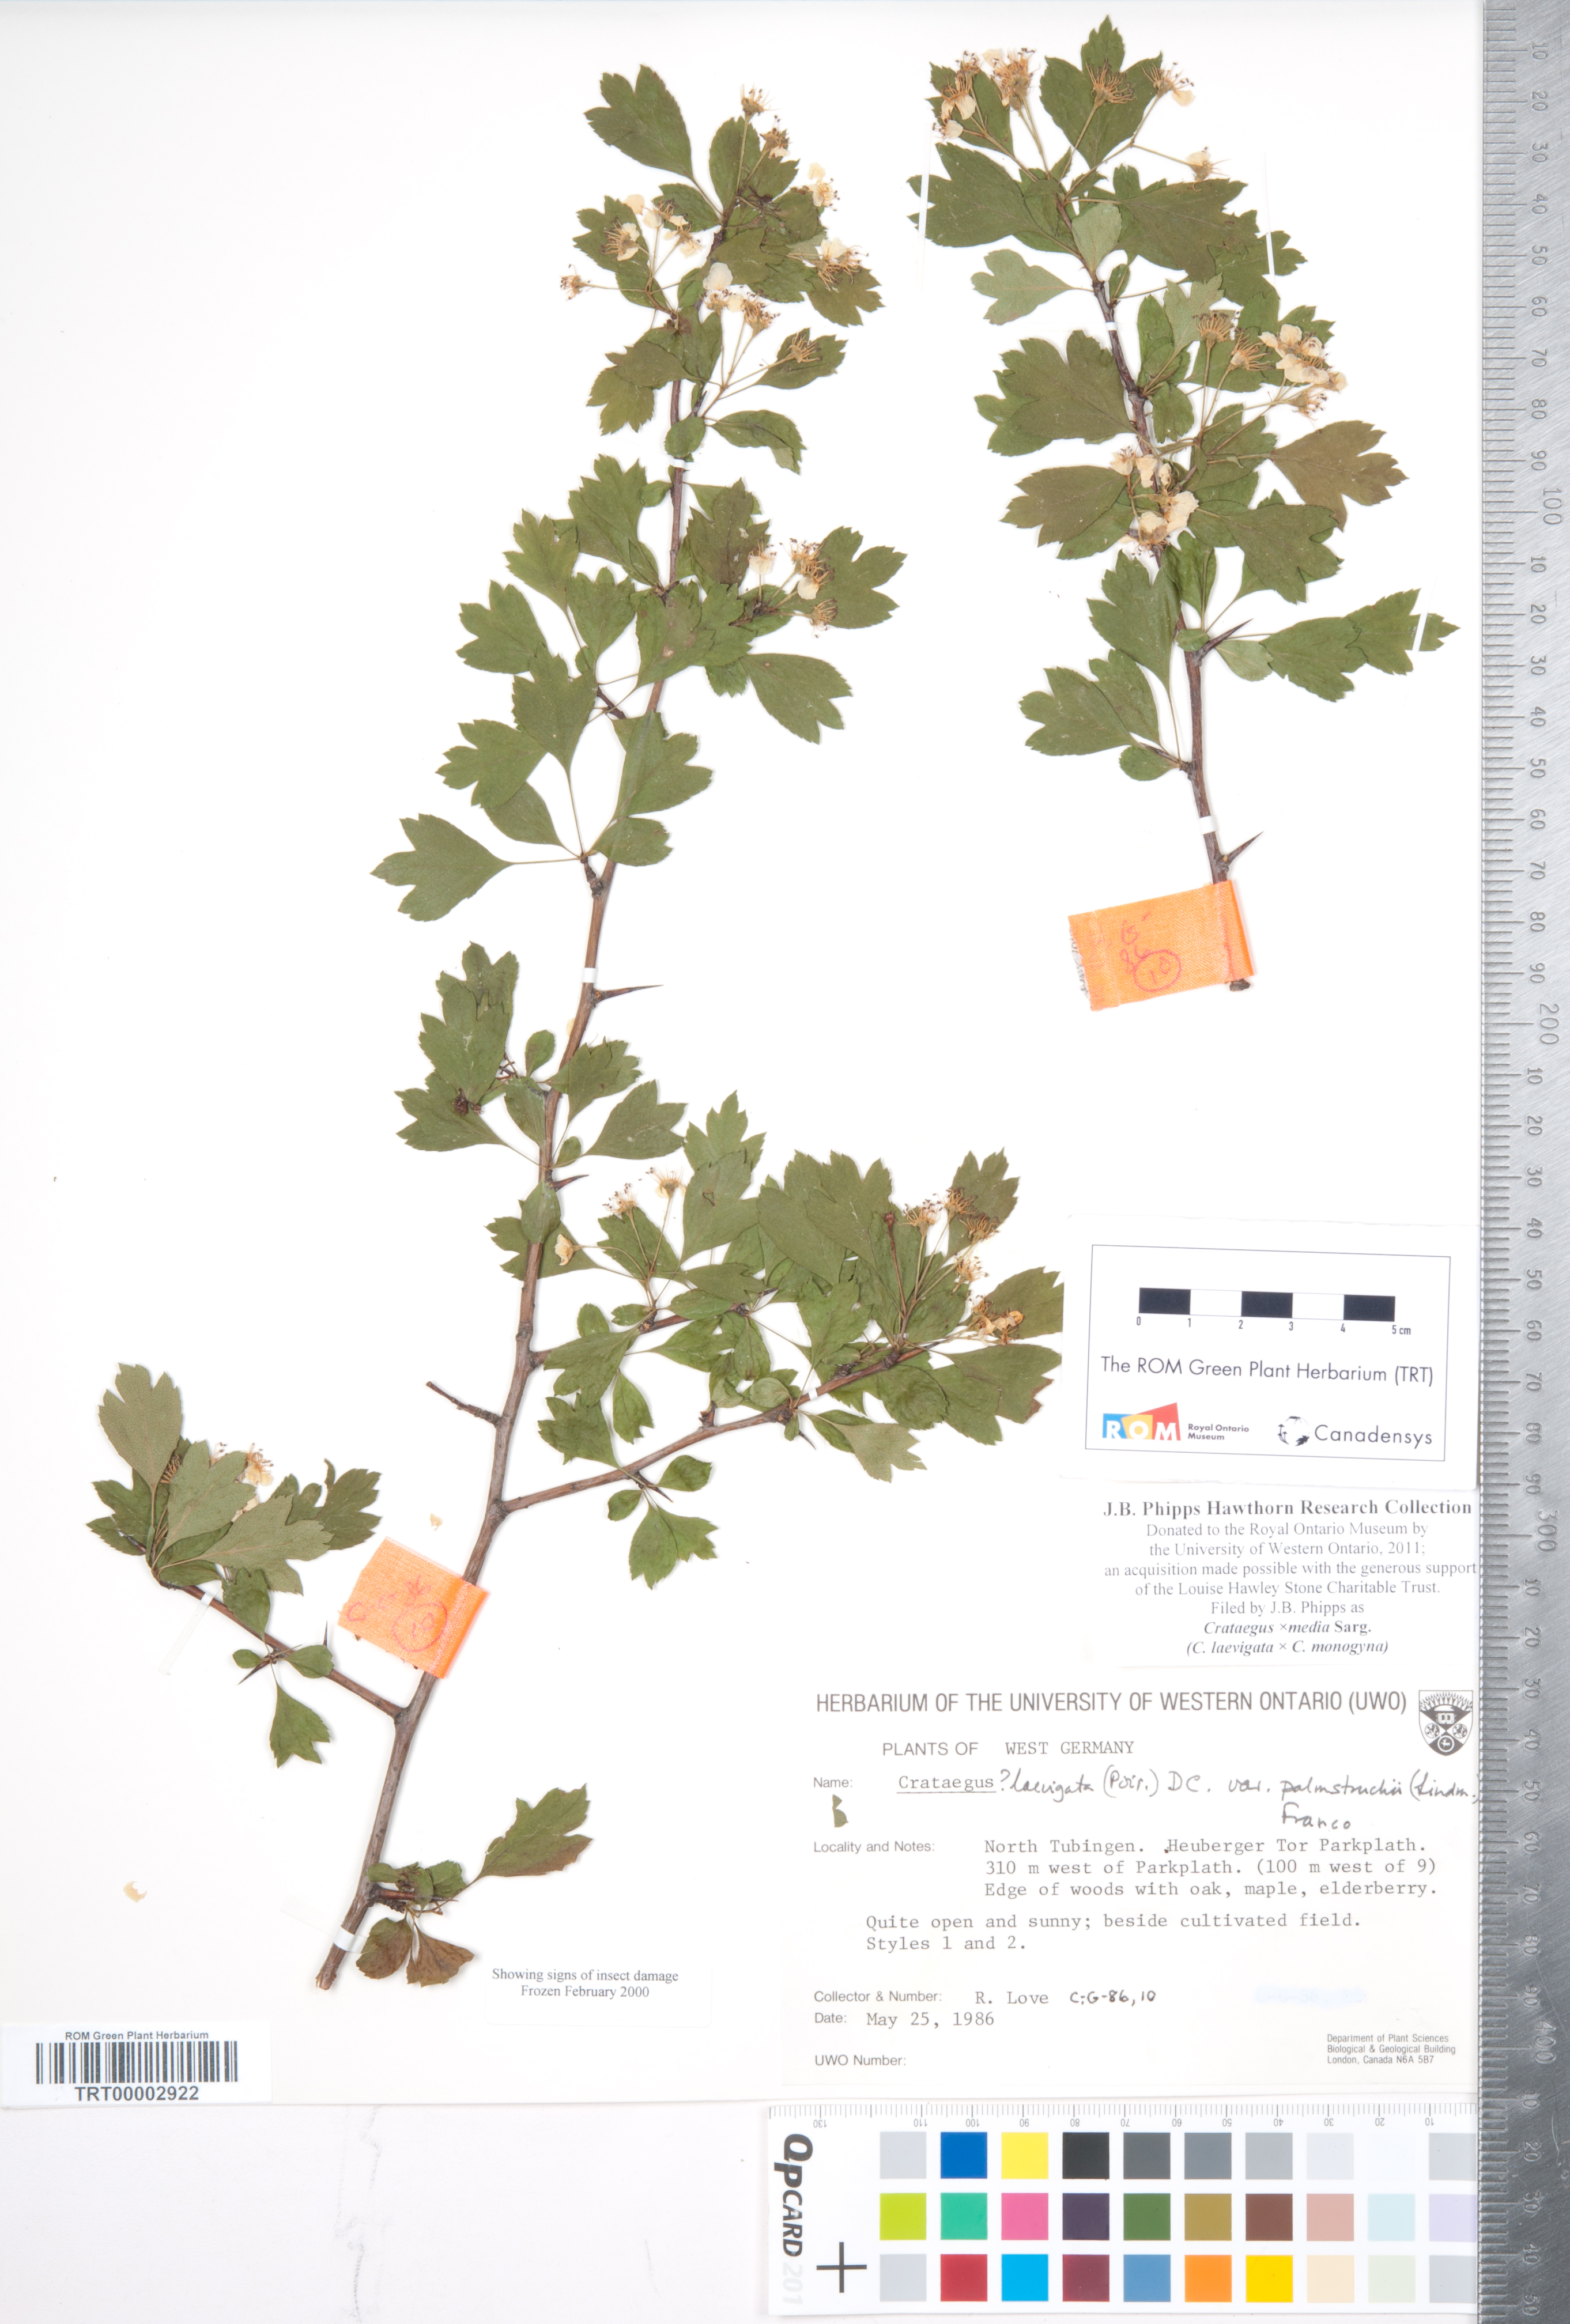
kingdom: Plantae
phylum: Tracheophyta
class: Magnoliopsida
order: Rosales
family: Rosaceae
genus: Crataegus
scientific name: Crataegus media
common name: Intermediate hawthorn
